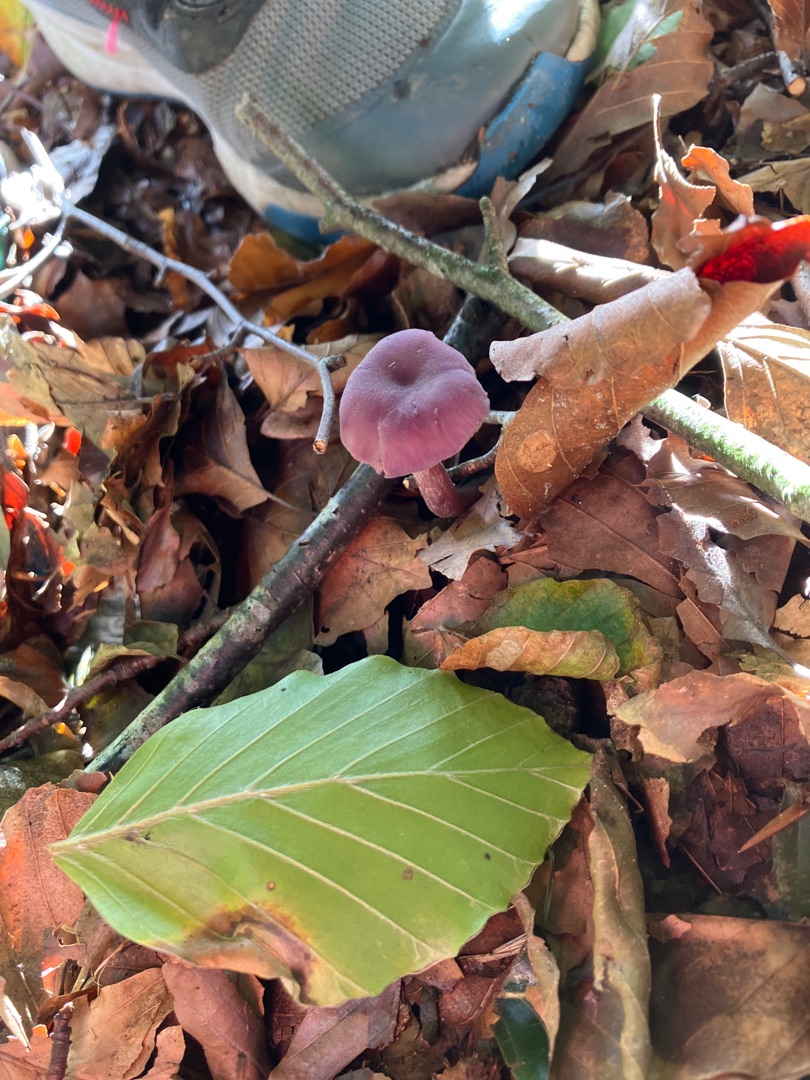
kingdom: Fungi
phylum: Basidiomycota
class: Agaricomycetes
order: Agaricales
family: Hydnangiaceae
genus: Laccaria
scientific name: Laccaria amethystina
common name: Violet ametysthat
